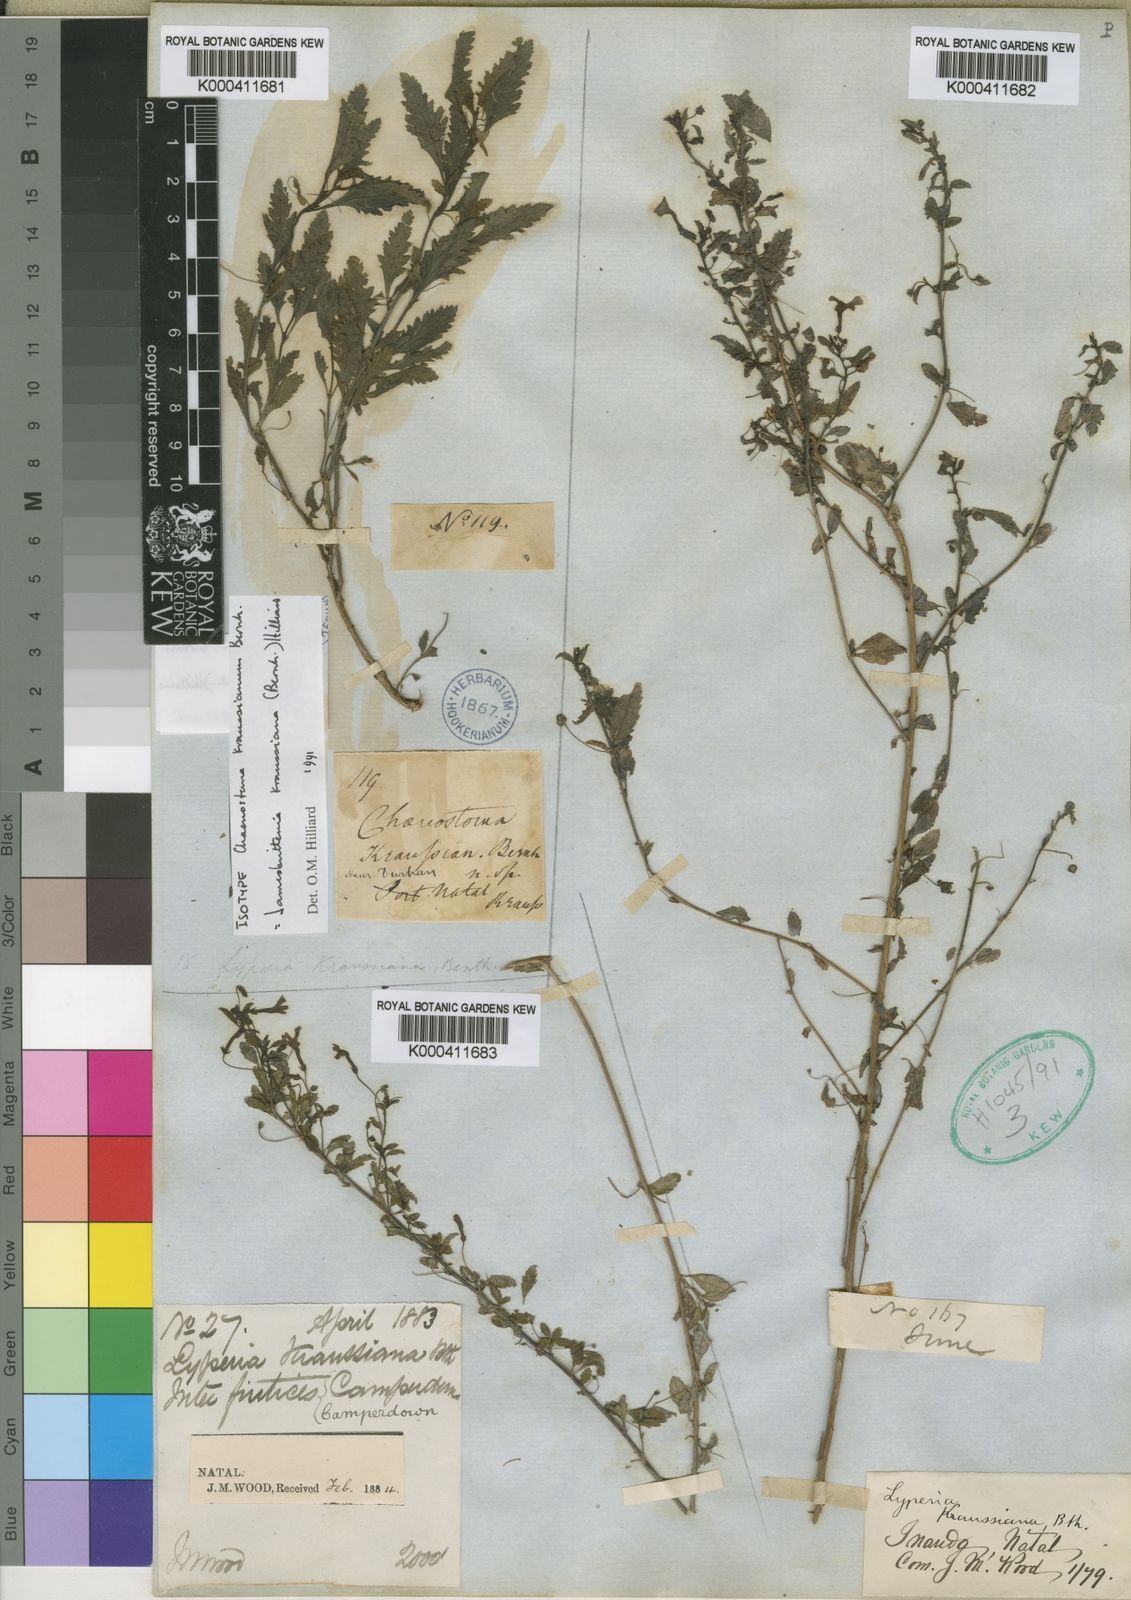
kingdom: Plantae
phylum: Tracheophyta
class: Magnoliopsida
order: Lamiales
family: Scrophulariaceae
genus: Jamesbrittenia
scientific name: Jamesbrittenia kraussiana
